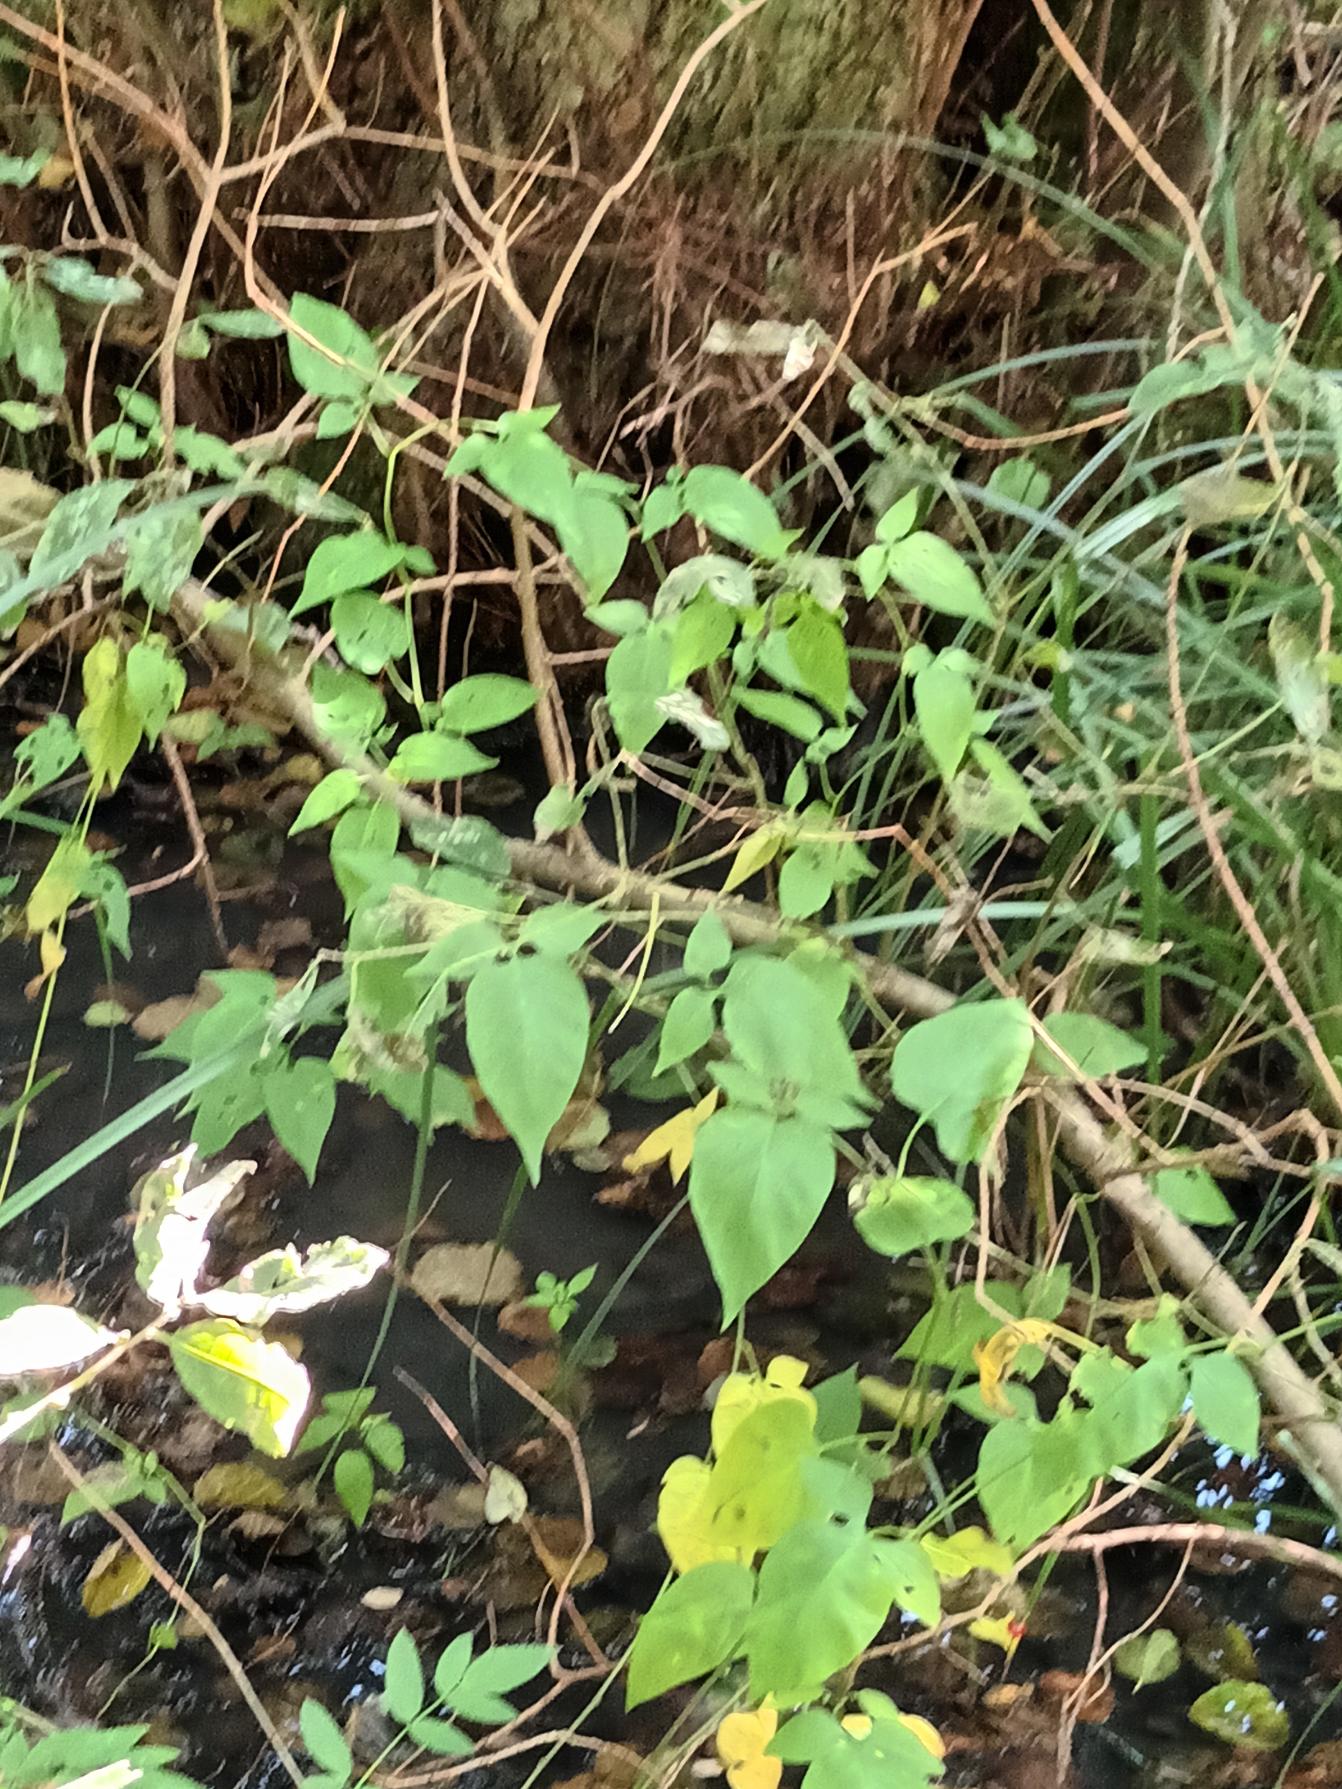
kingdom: Plantae
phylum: Tracheophyta
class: Magnoliopsida
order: Solanales
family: Solanaceae
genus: Solanum
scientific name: Solanum dulcamara
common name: Bittersød natskygge
